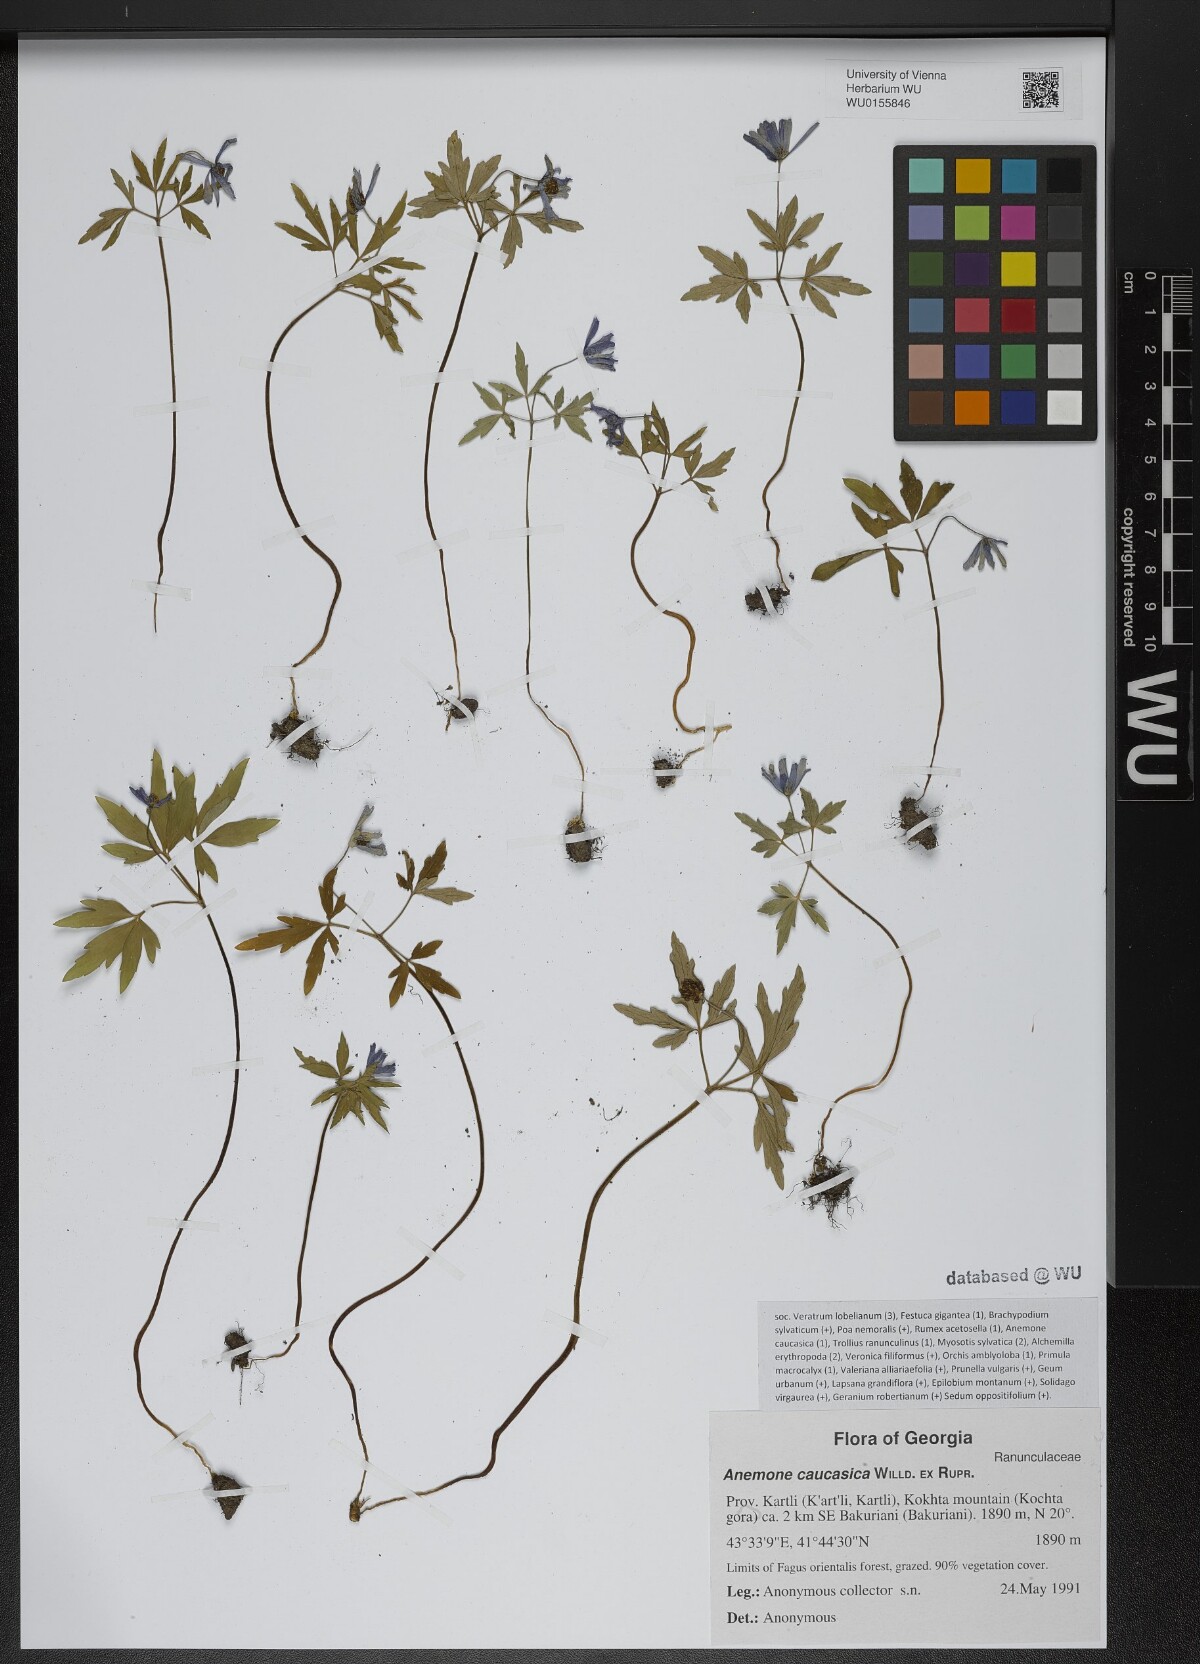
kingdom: Plantae
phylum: Tracheophyta
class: Magnoliopsida
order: Ranunculales
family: Ranunculaceae
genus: Anemone
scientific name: Anemone caucasica
